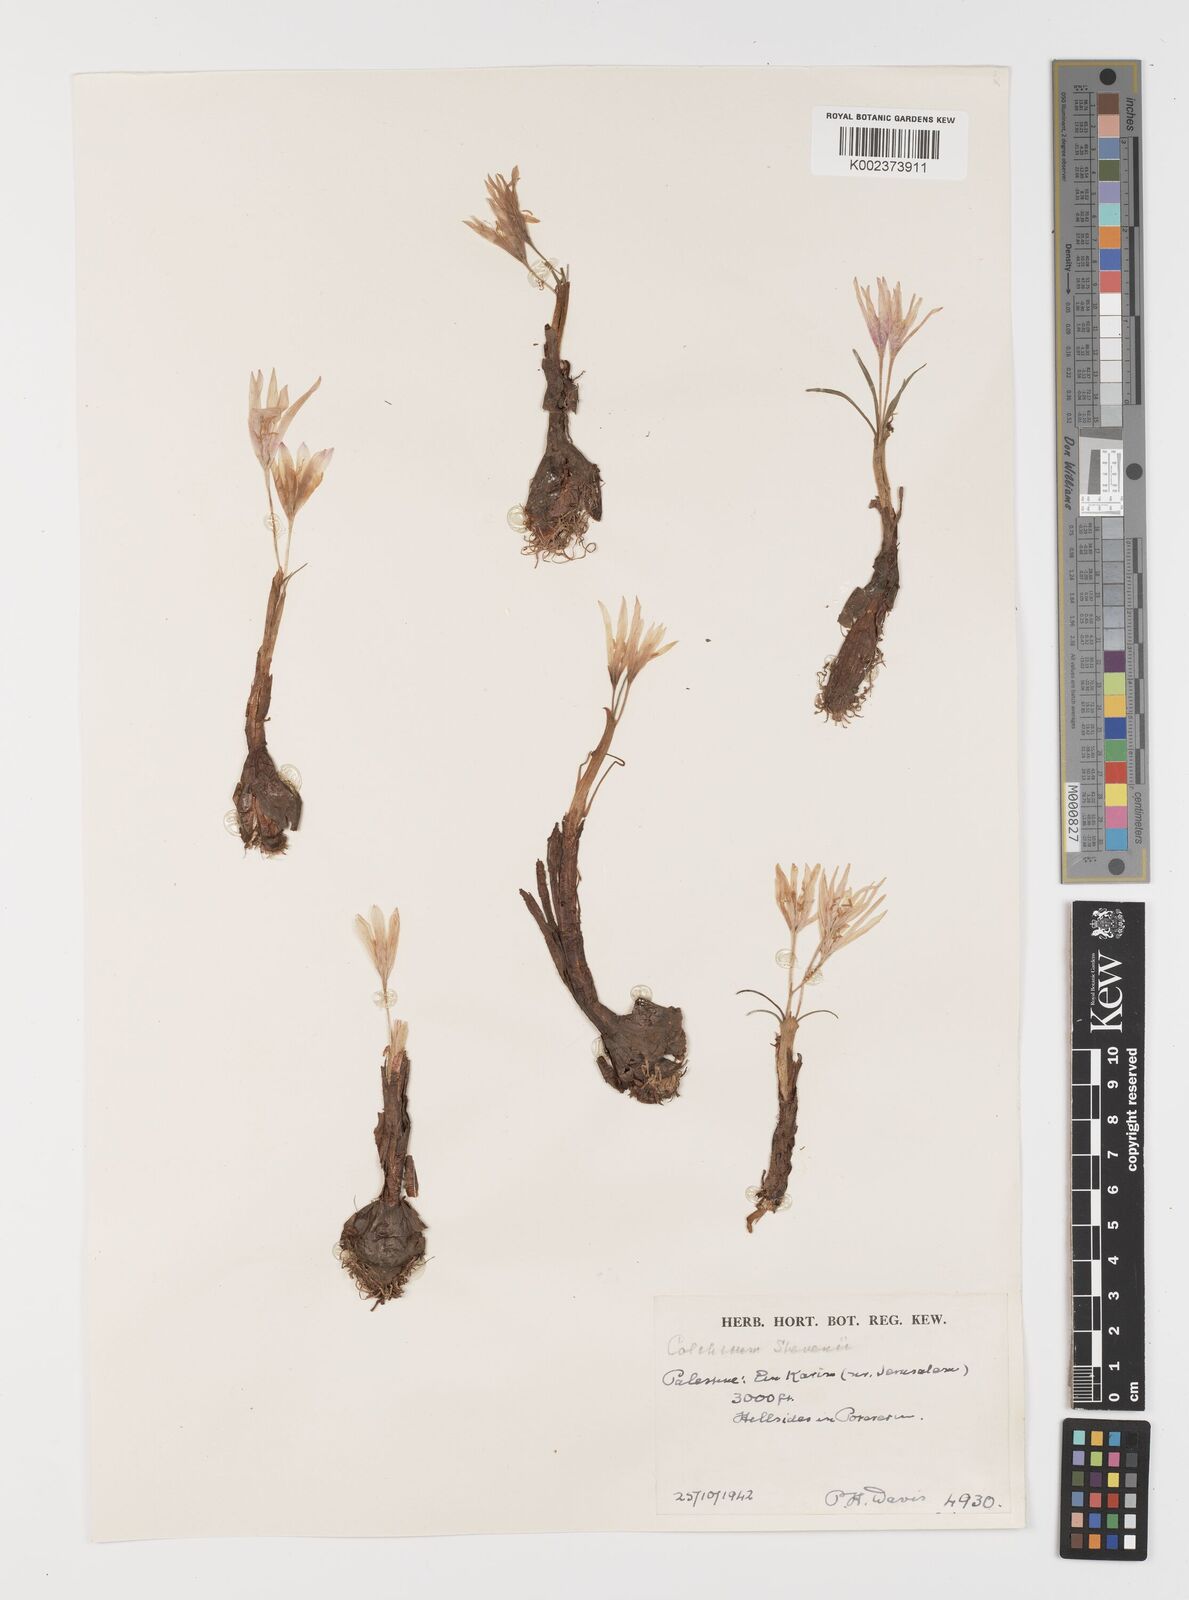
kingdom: Plantae
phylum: Tracheophyta
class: Liliopsida
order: Liliales
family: Colchicaceae
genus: Colchicum
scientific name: Colchicum stevenii
